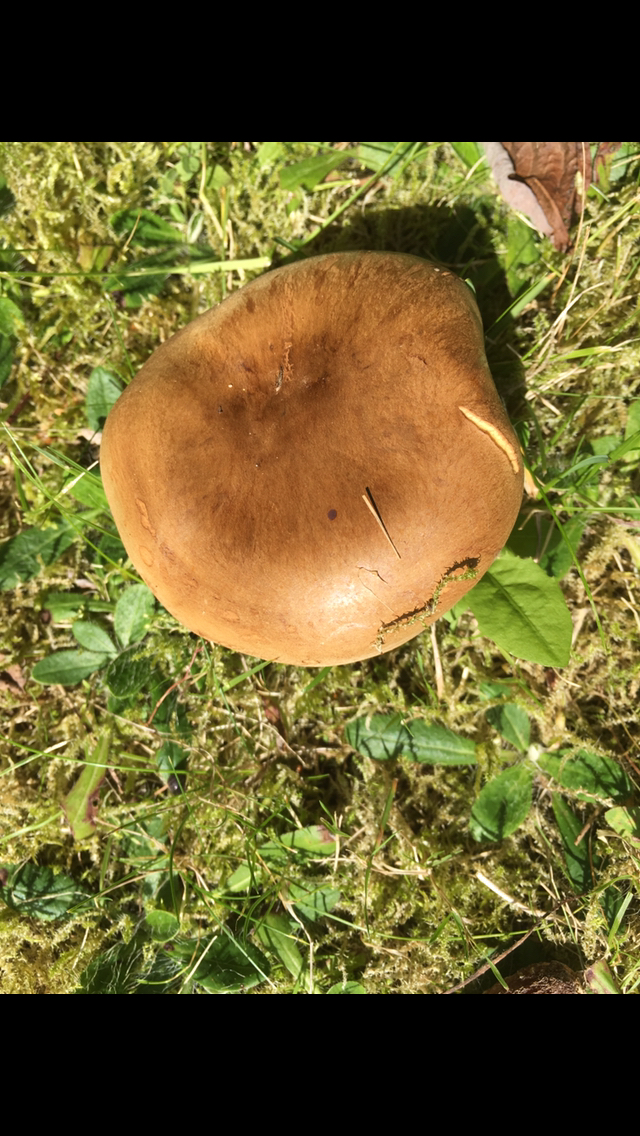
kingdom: Fungi
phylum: Basidiomycota
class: Agaricomycetes
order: Boletales
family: Paxillaceae
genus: Paxillus
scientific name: Paxillus
